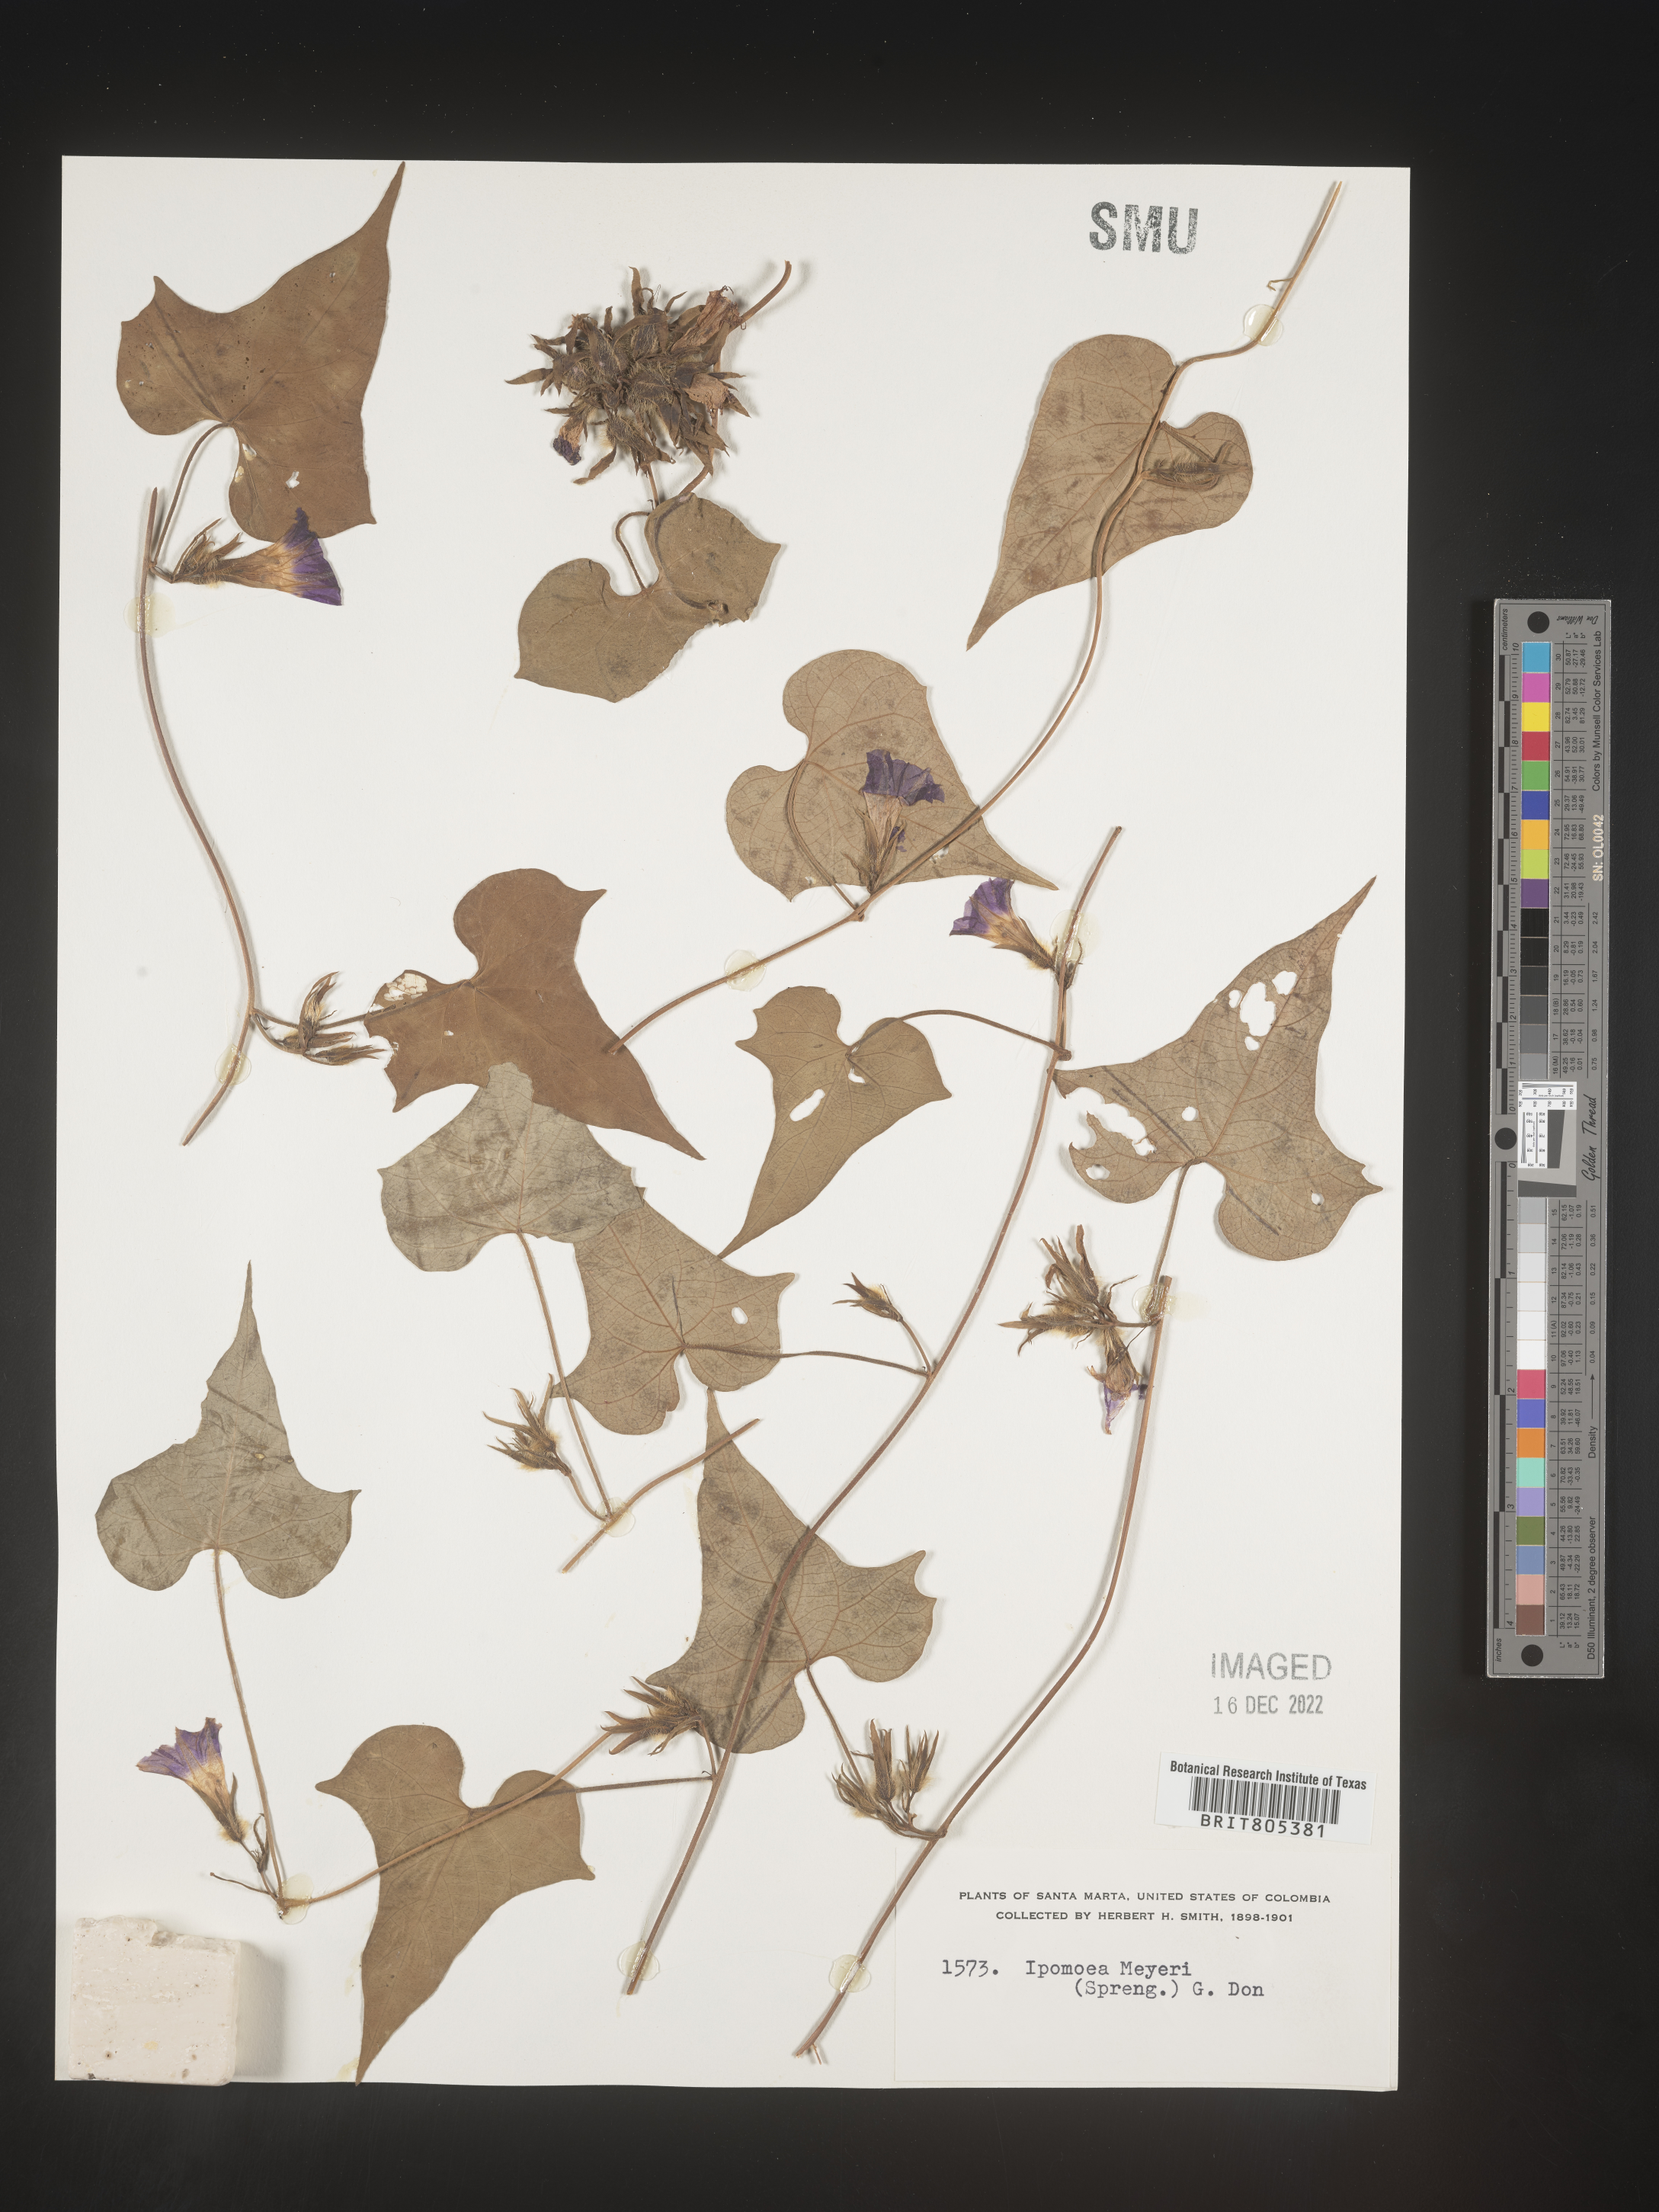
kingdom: Plantae
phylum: Tracheophyta
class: Magnoliopsida
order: Solanales
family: Convolvulaceae
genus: Ipomoea
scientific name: Ipomoea
